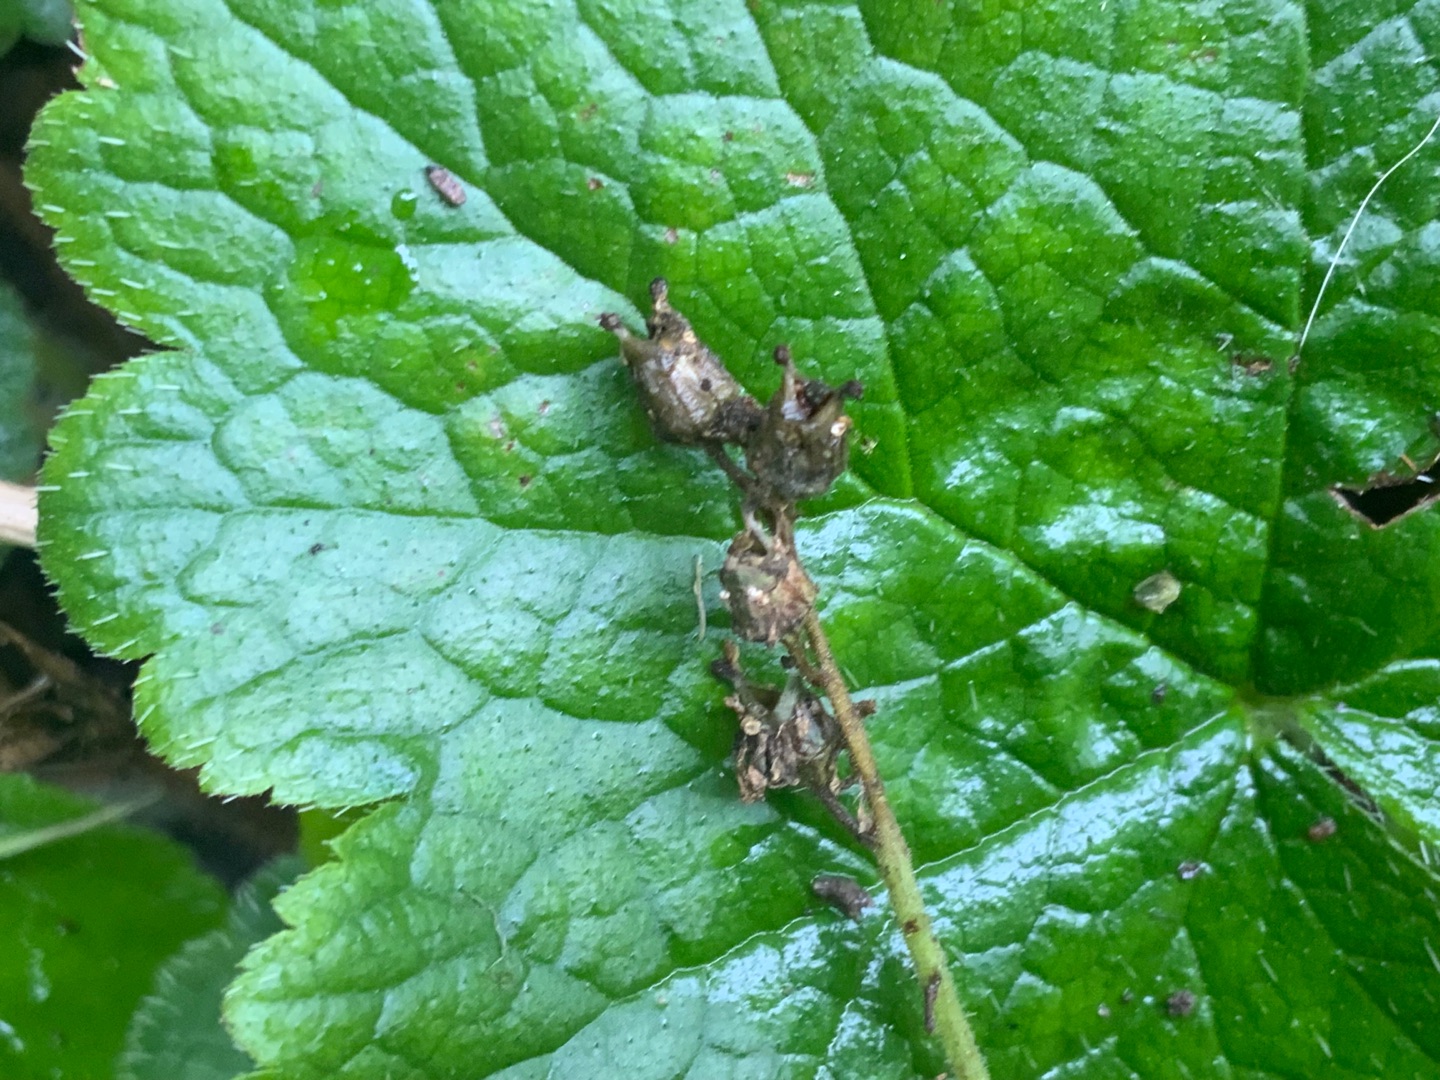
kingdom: Plantae
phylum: Tracheophyta
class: Magnoliopsida
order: Saxifragales
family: Saxifragaceae
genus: Tellima
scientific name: Tellima grandiflora
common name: Biskophat
